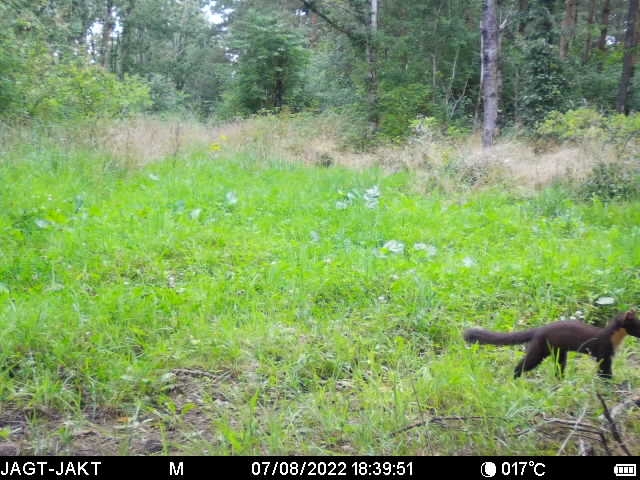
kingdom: Animalia
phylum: Chordata
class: Mammalia
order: Carnivora
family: Mustelidae
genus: Martes
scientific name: Martes martes
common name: Skovmår
